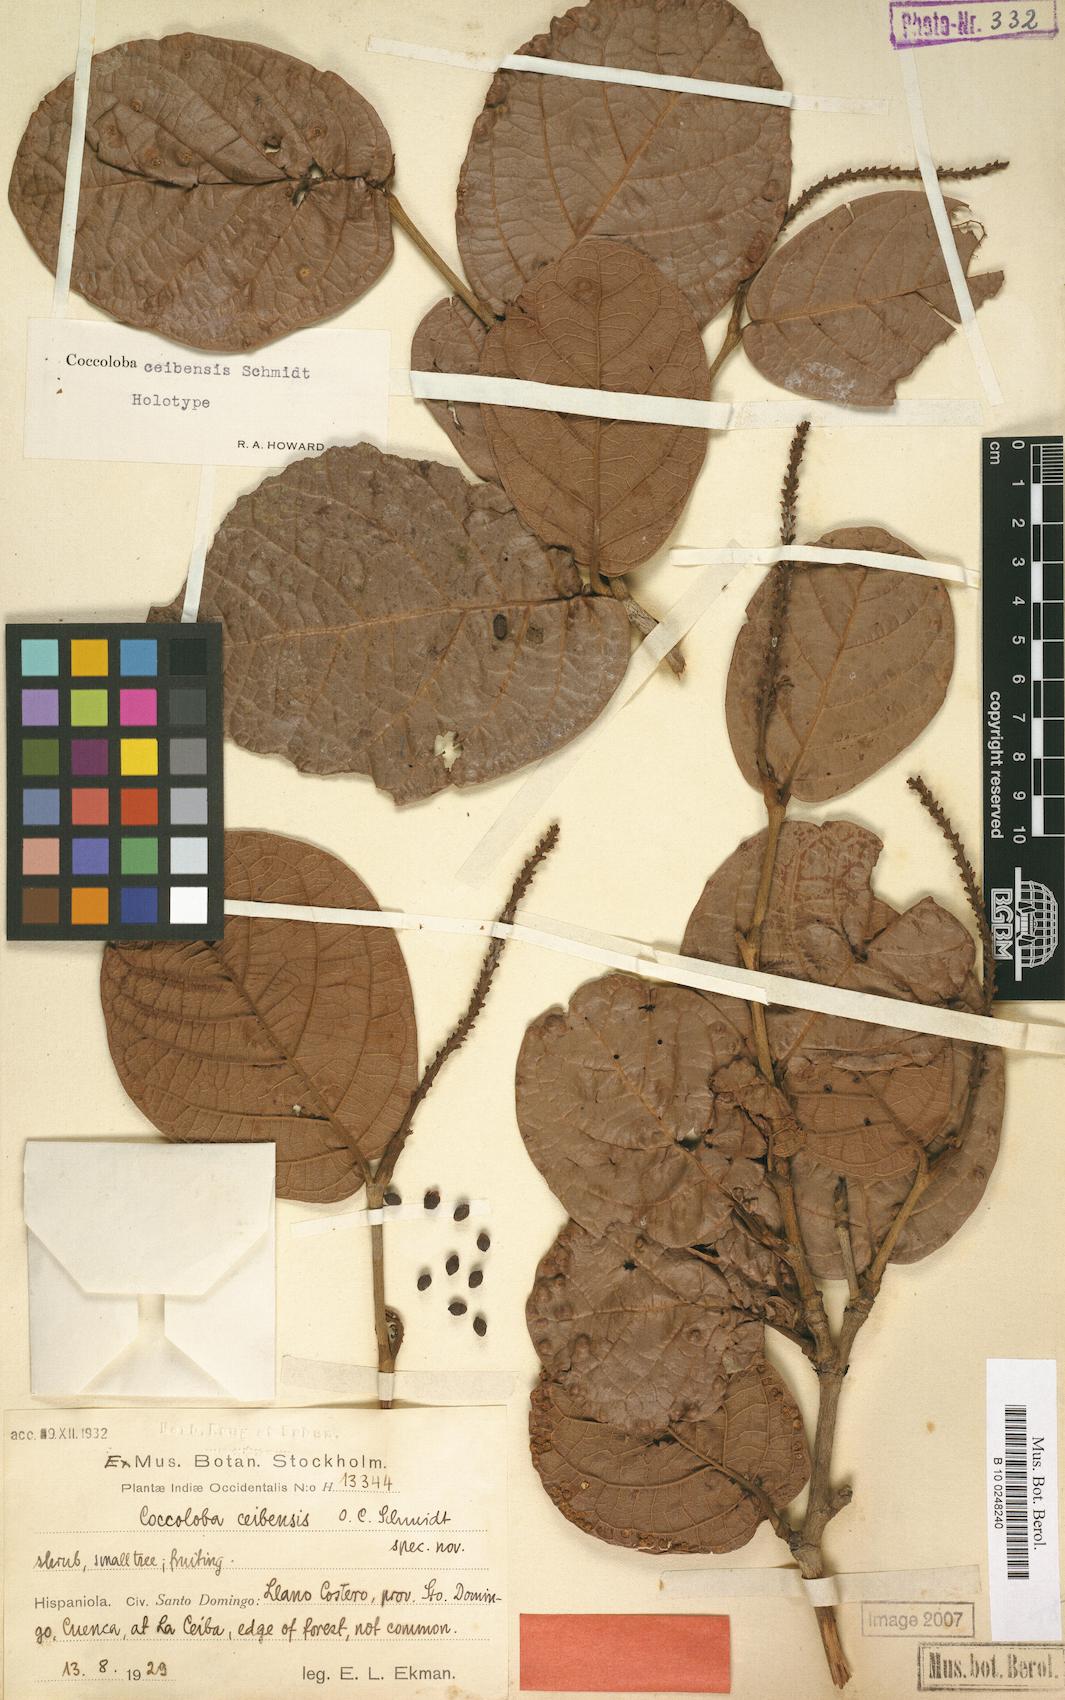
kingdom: Plantae
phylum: Tracheophyta
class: Magnoliopsida
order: Caryophyllales
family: Polygonaceae
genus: Coccoloba
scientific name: Coccoloba ceibensis
